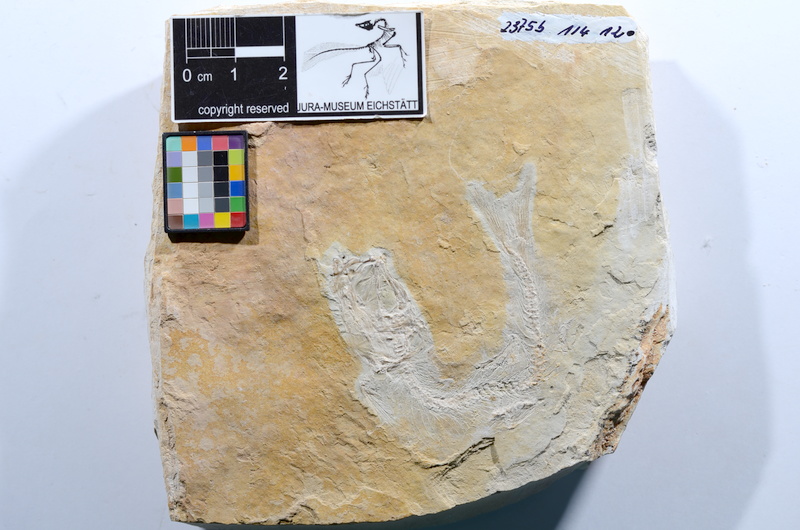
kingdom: Animalia
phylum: Chordata
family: Ascalaboidae
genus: Tharsis
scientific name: Tharsis dubius
